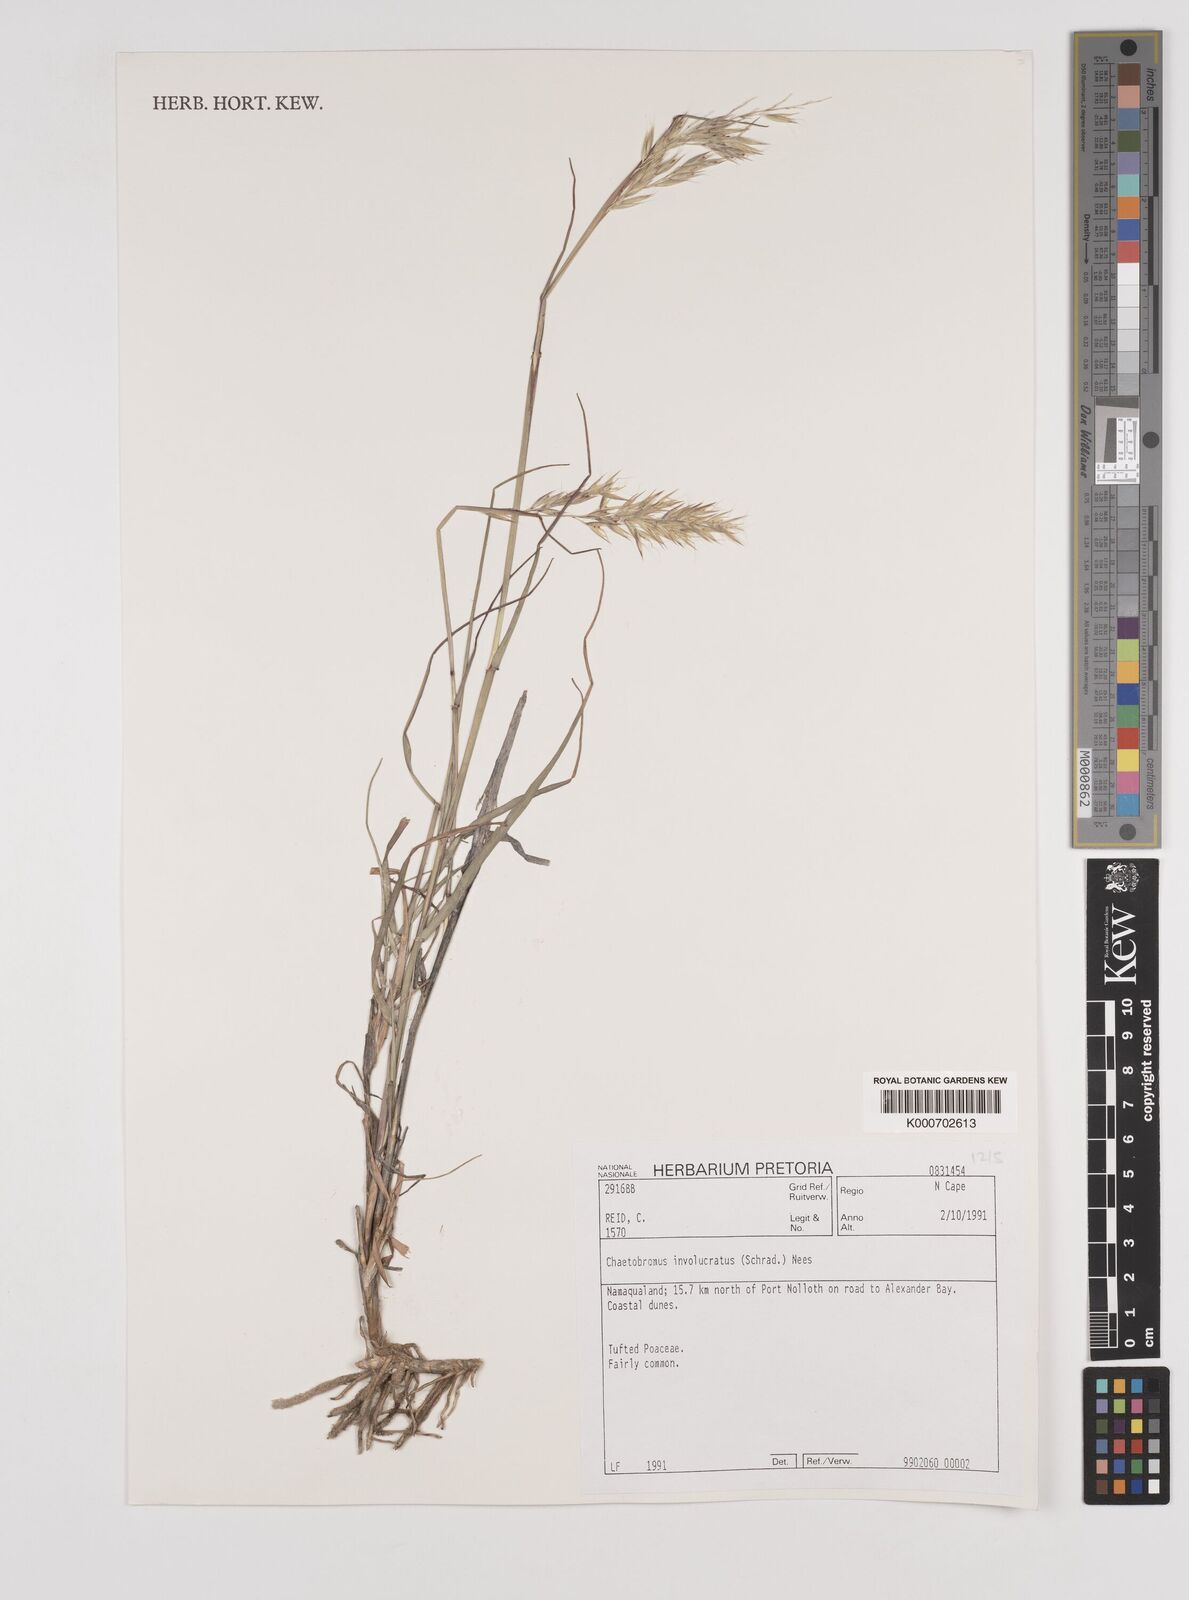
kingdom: Plantae
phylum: Tracheophyta
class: Liliopsida
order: Poales
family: Poaceae
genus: Chaetobromus
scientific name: Chaetobromus involucratus
